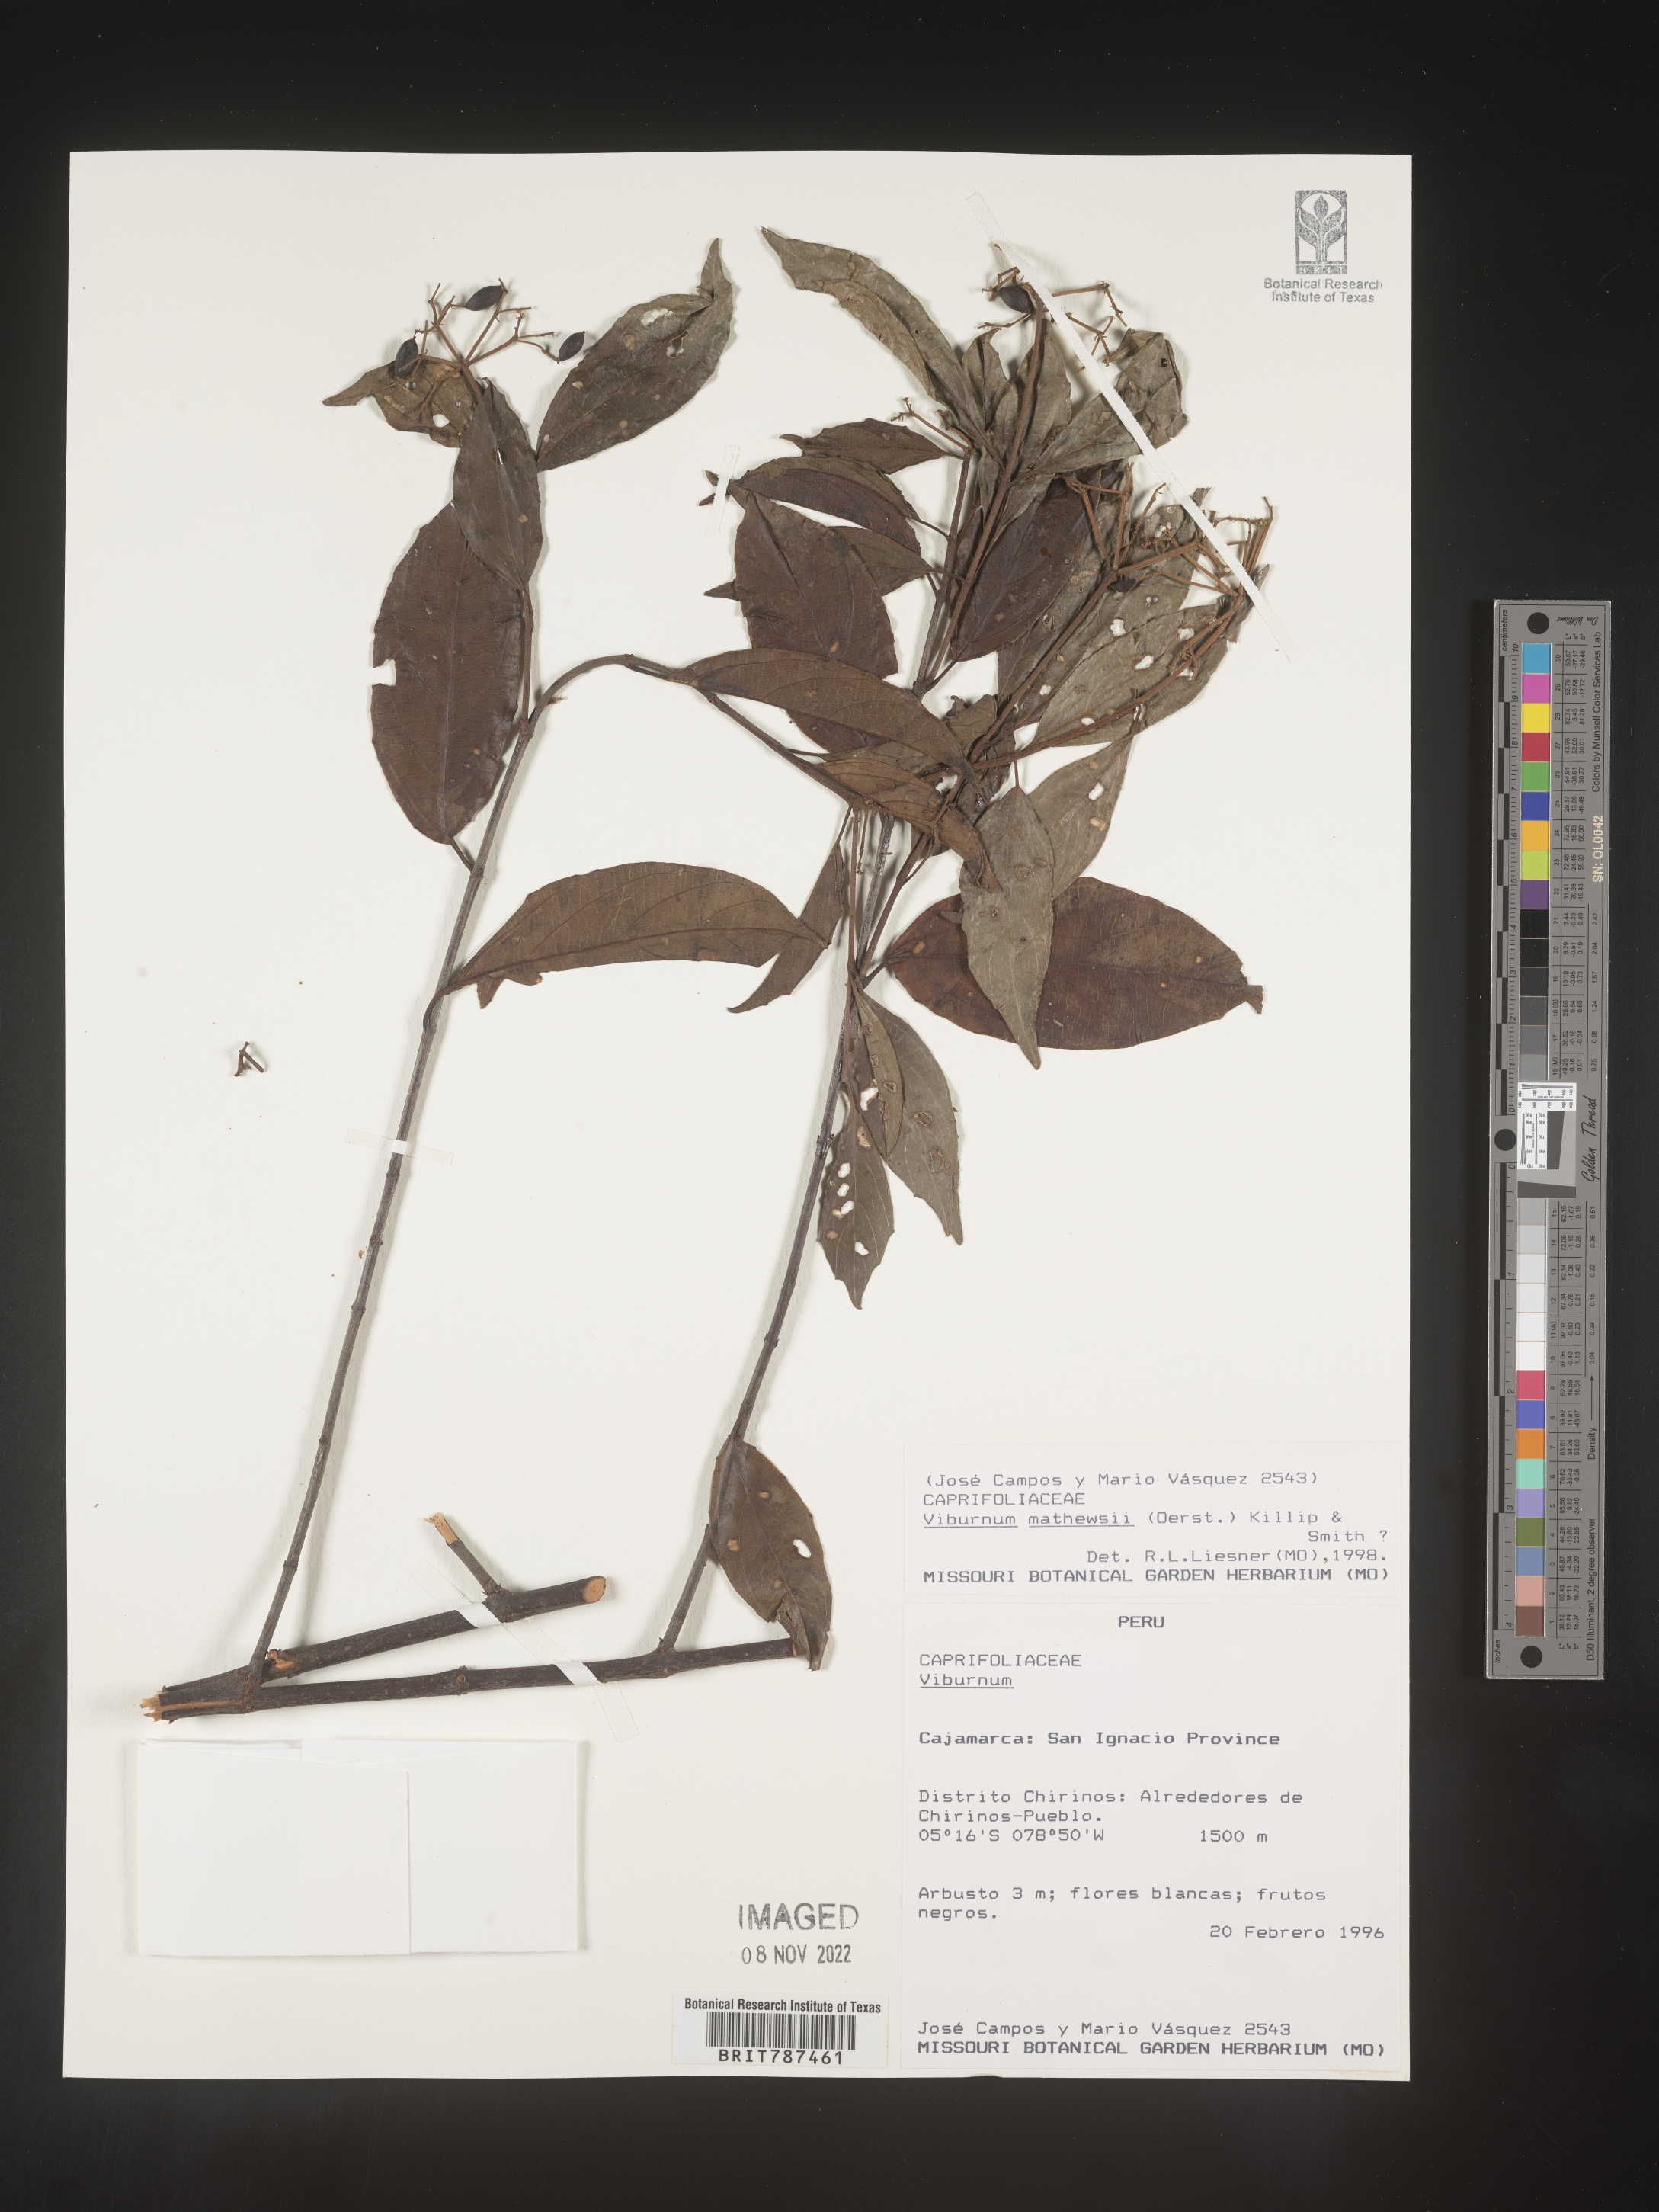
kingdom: Plantae
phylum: Tracheophyta
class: Magnoliopsida
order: Dipsacales
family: Viburnaceae
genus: Viburnum
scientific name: Viburnum
